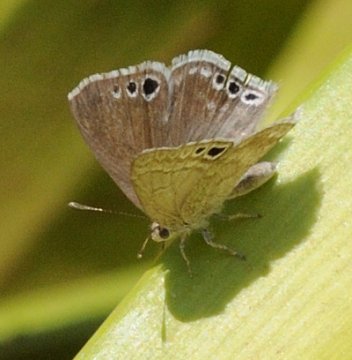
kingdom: Animalia
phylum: Arthropoda
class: Insecta
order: Lepidoptera
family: Lycaenidae
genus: Leptomyrina
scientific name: Leptomyrina gorgias
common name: Common Black-eye
